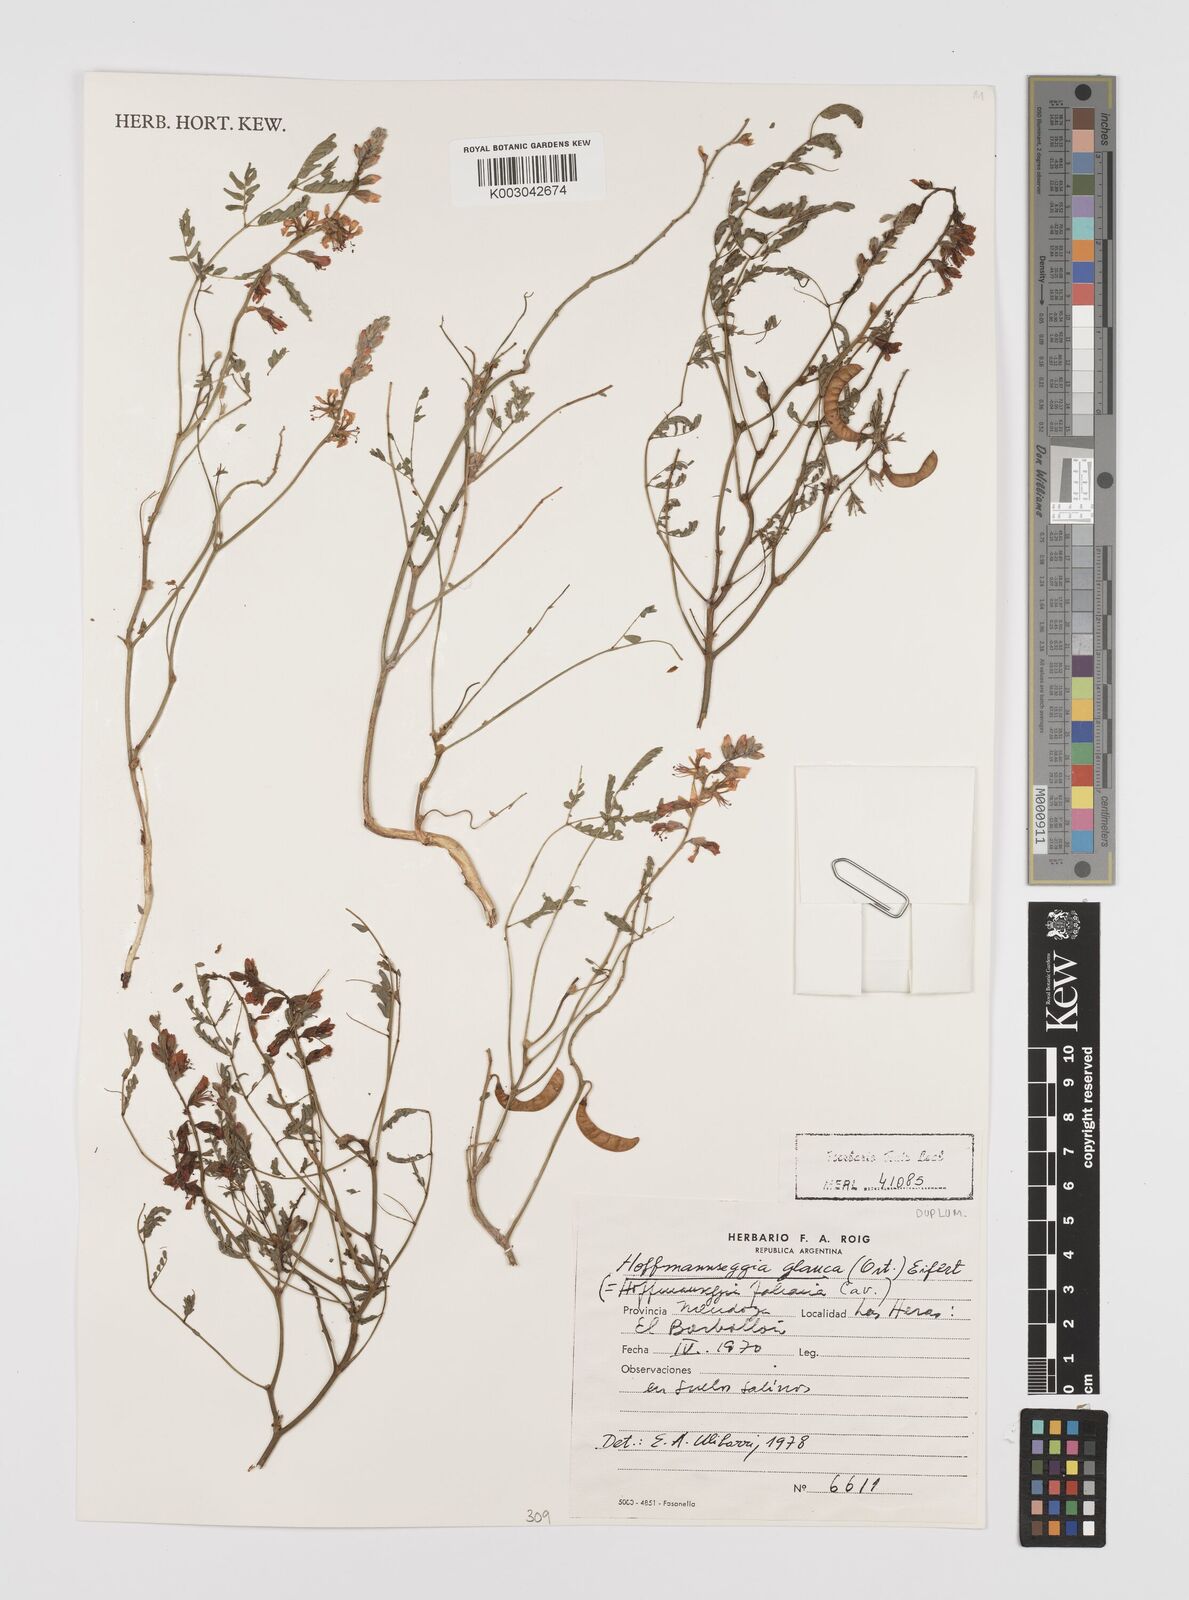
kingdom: Plantae
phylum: Tracheophyta
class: Magnoliopsida
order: Fabales
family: Fabaceae
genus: Hoffmannseggia
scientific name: Hoffmannseggia glauca
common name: Pignut
